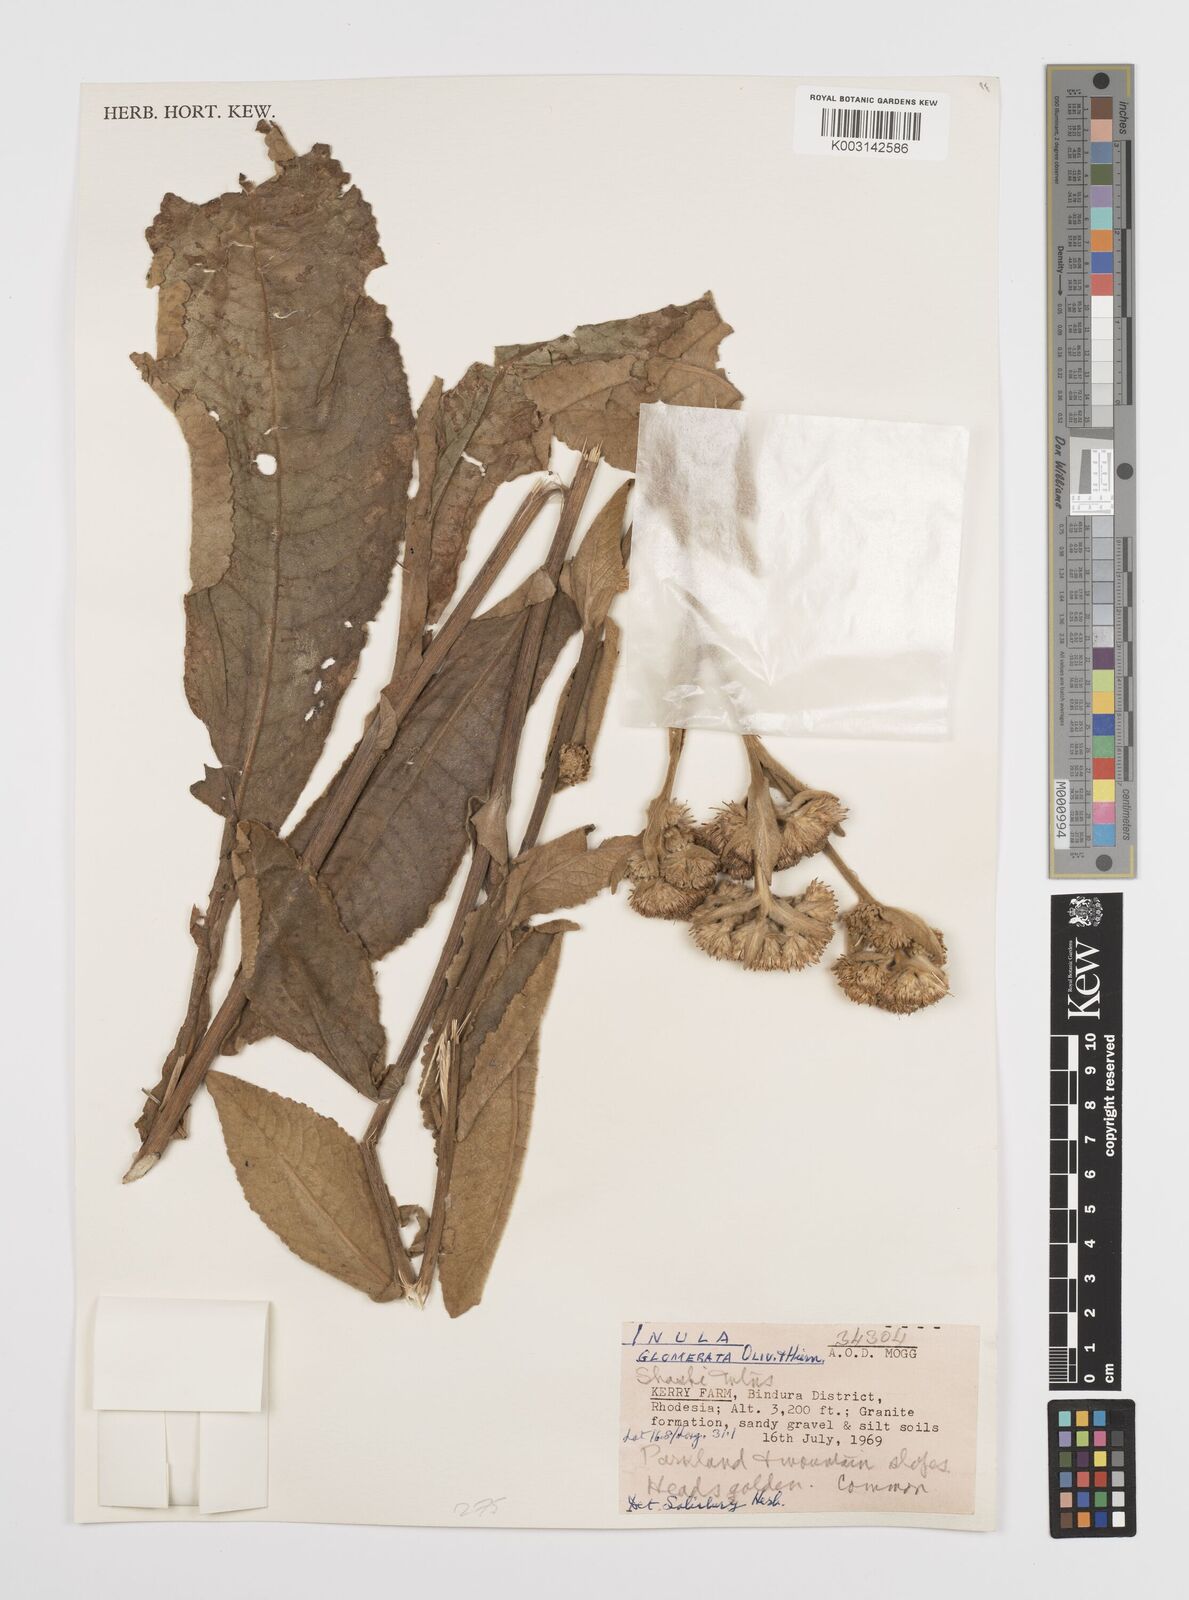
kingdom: Plantae
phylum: Tracheophyta
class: Magnoliopsida
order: Asterales
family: Asteraceae
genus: Inula
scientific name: Inula glomerata
